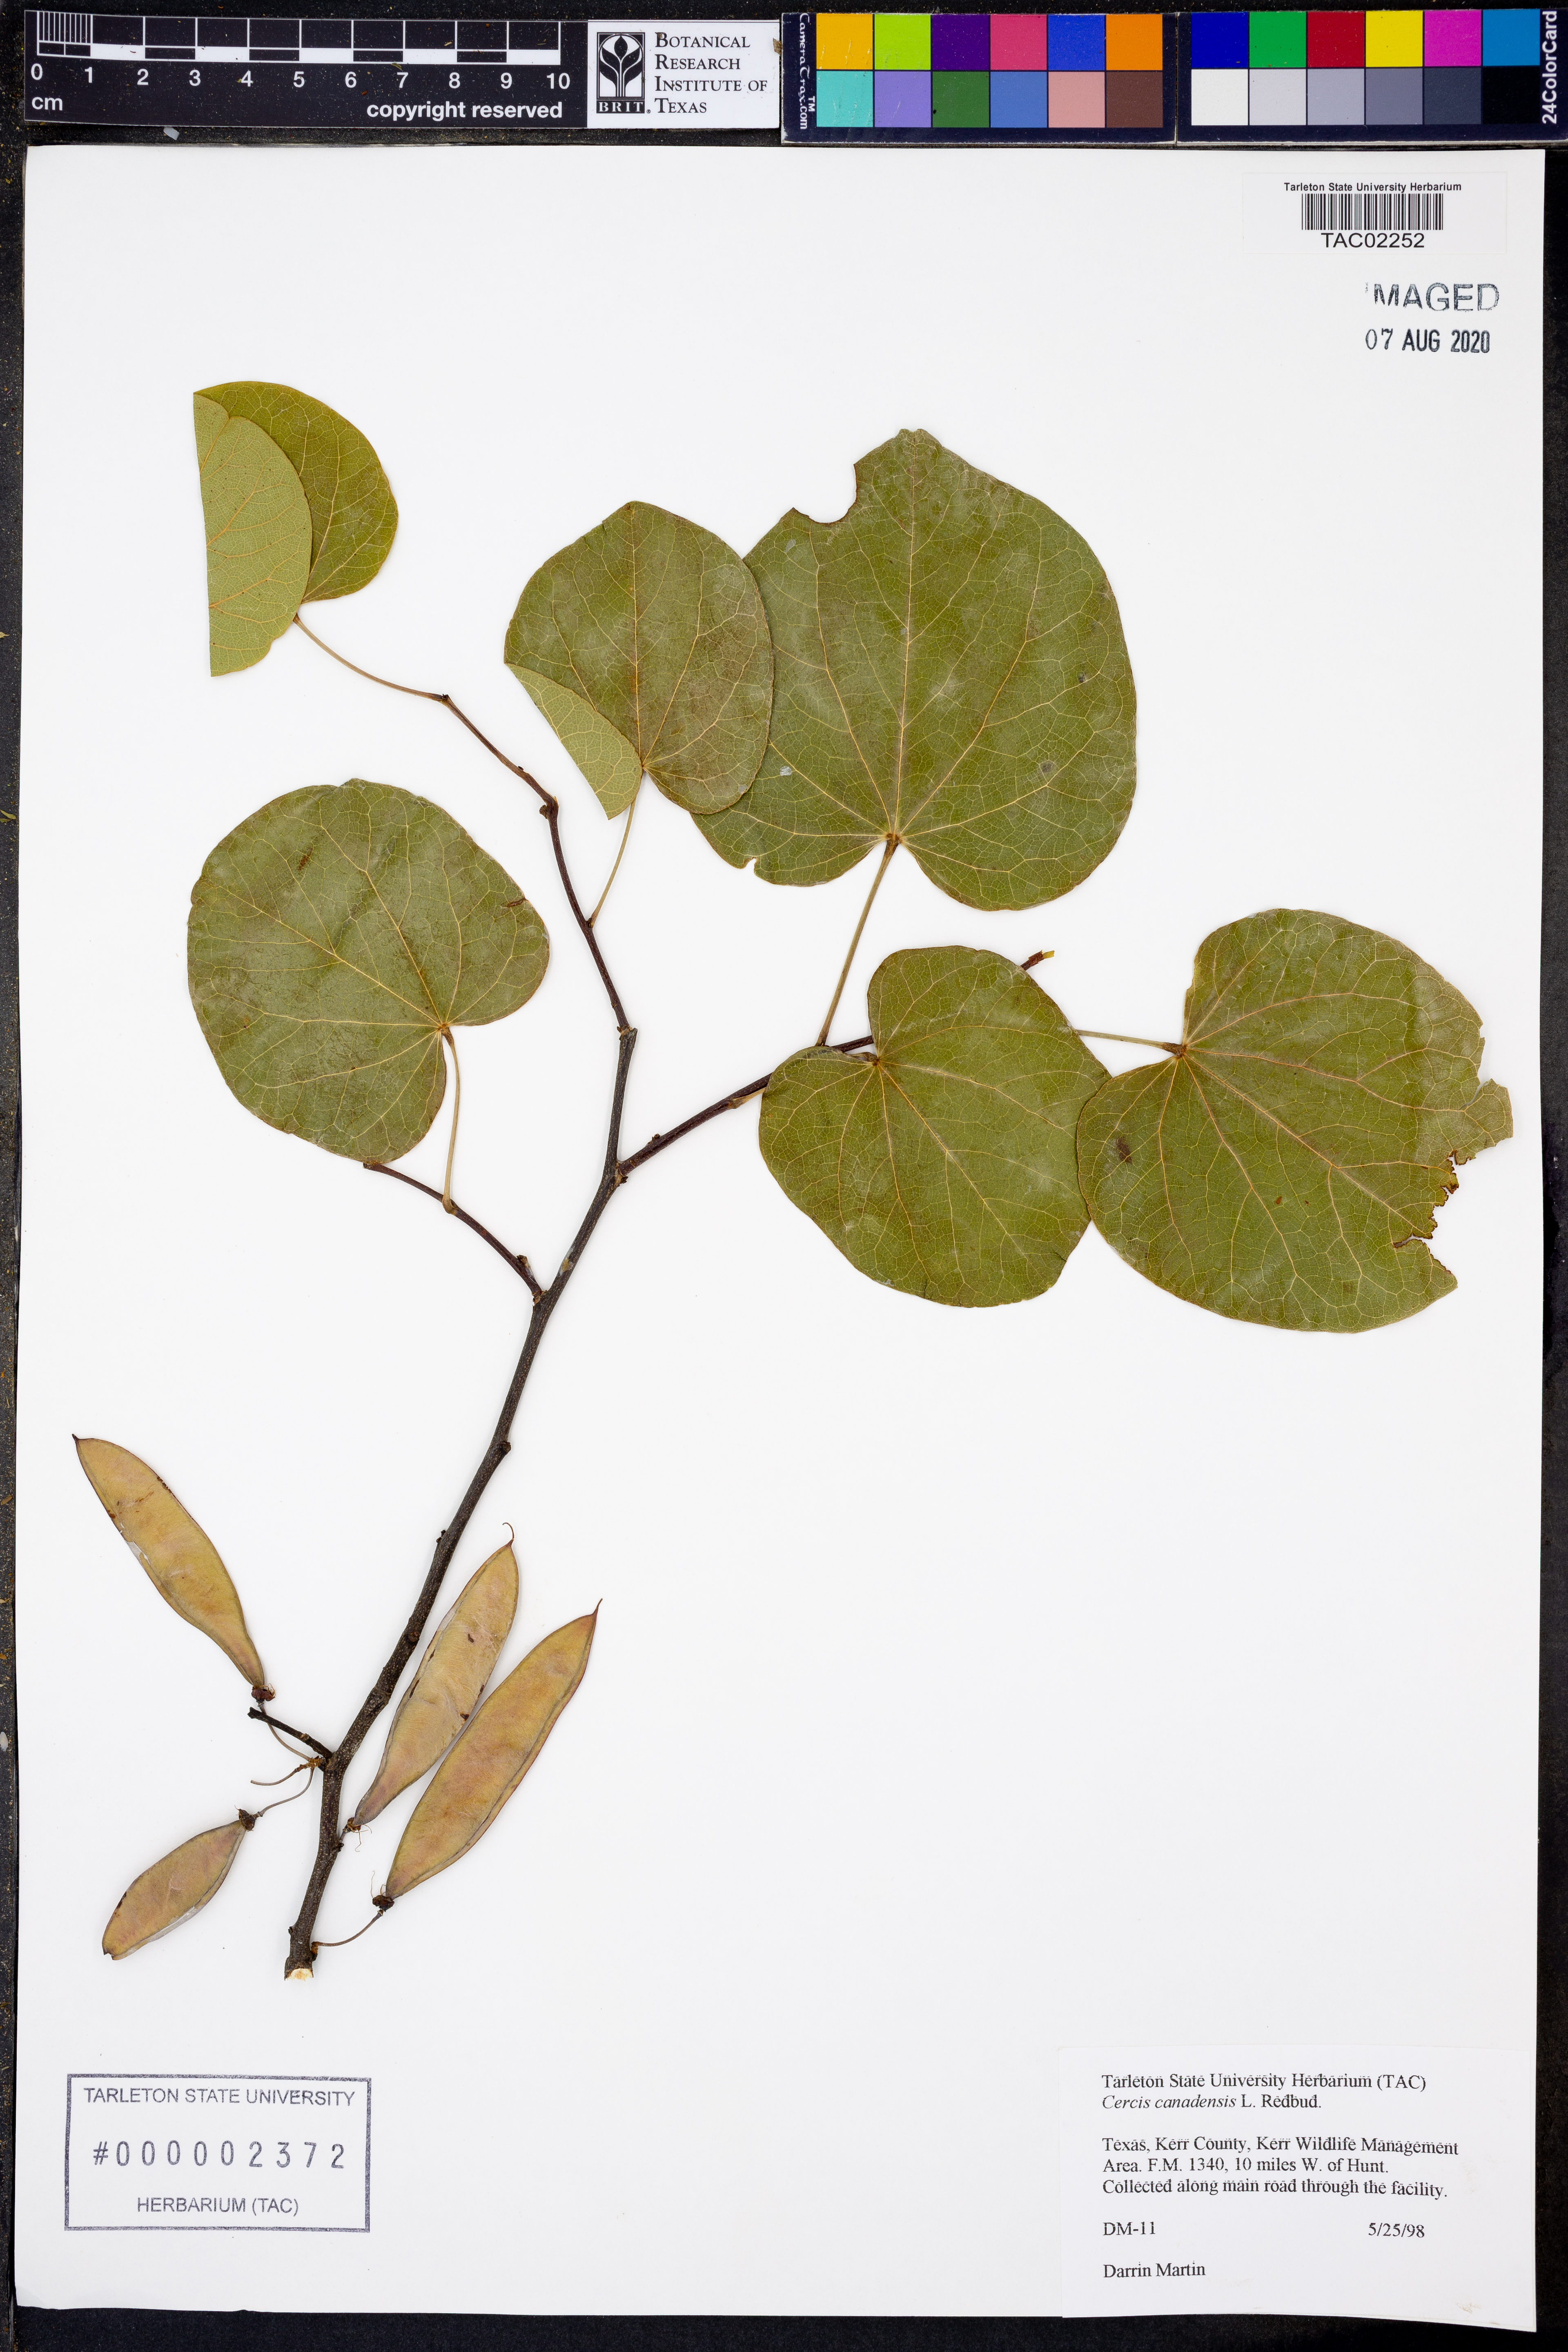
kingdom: Plantae
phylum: Tracheophyta
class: Magnoliopsida
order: Fabales
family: Fabaceae
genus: Cercis
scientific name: Cercis canadensis
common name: Eastern redbud
